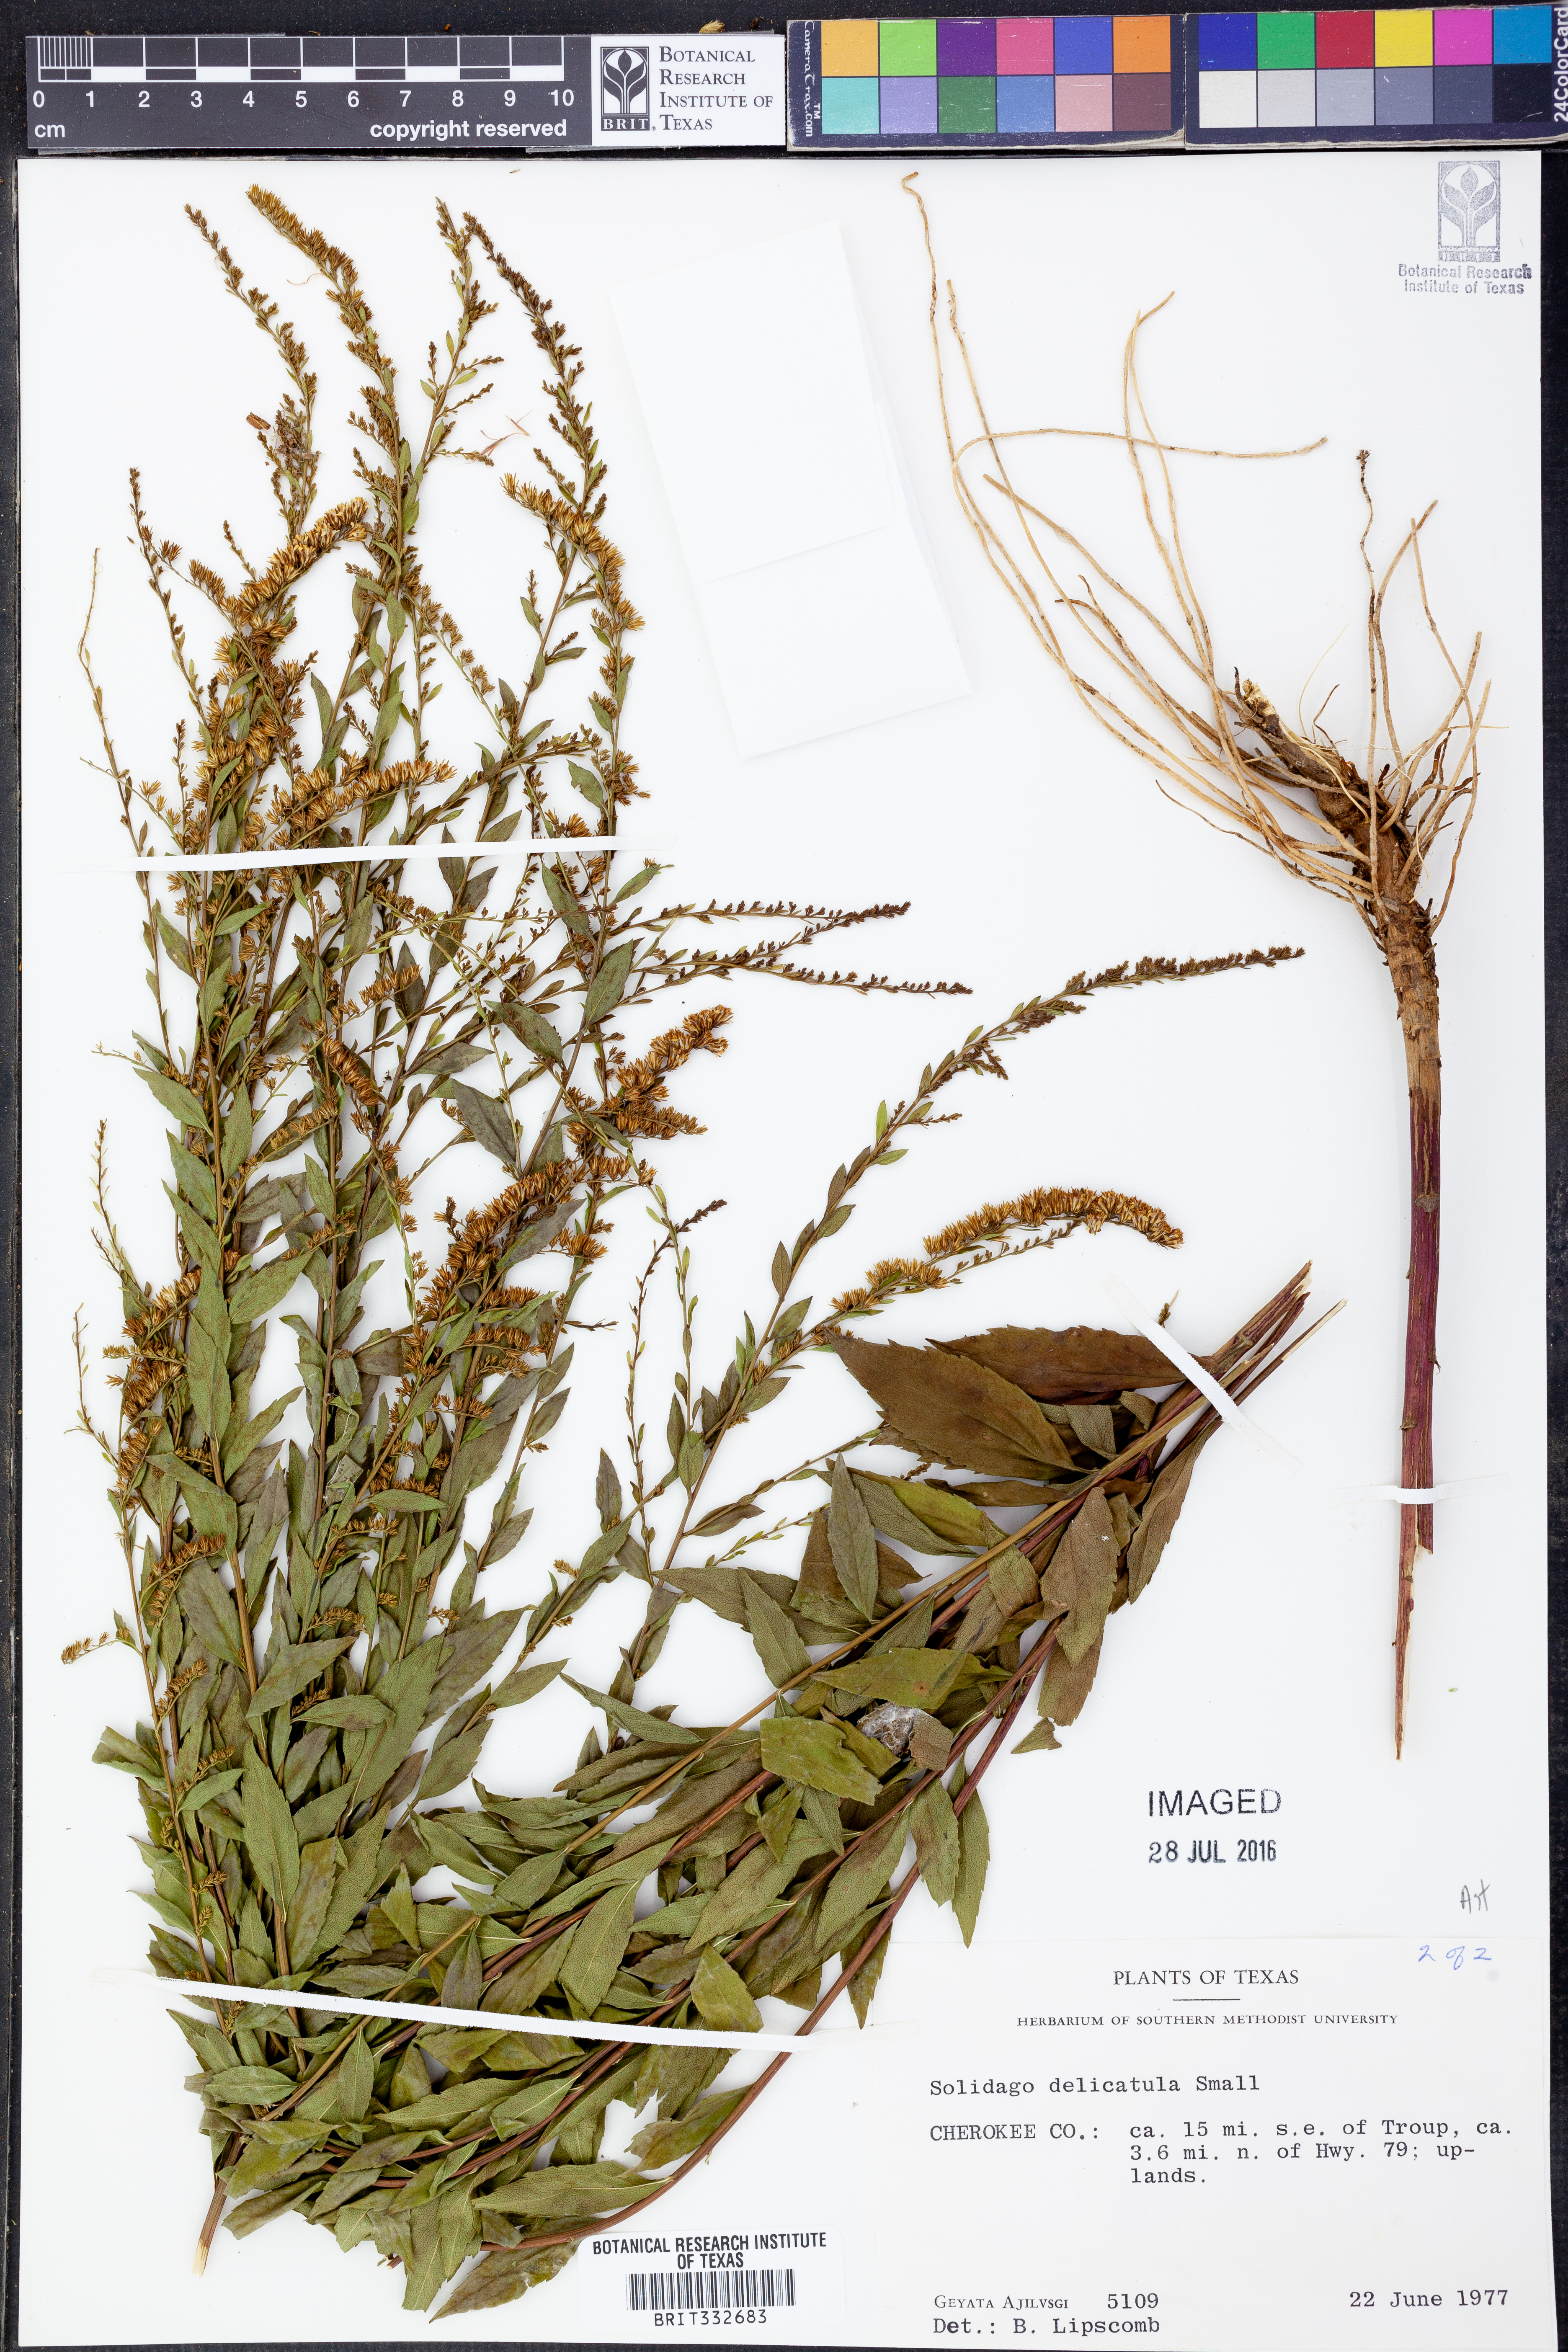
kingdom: Plantae
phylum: Tracheophyta
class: Magnoliopsida
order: Asterales
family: Asteraceae
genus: Solidago
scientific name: Solidago delicatula
